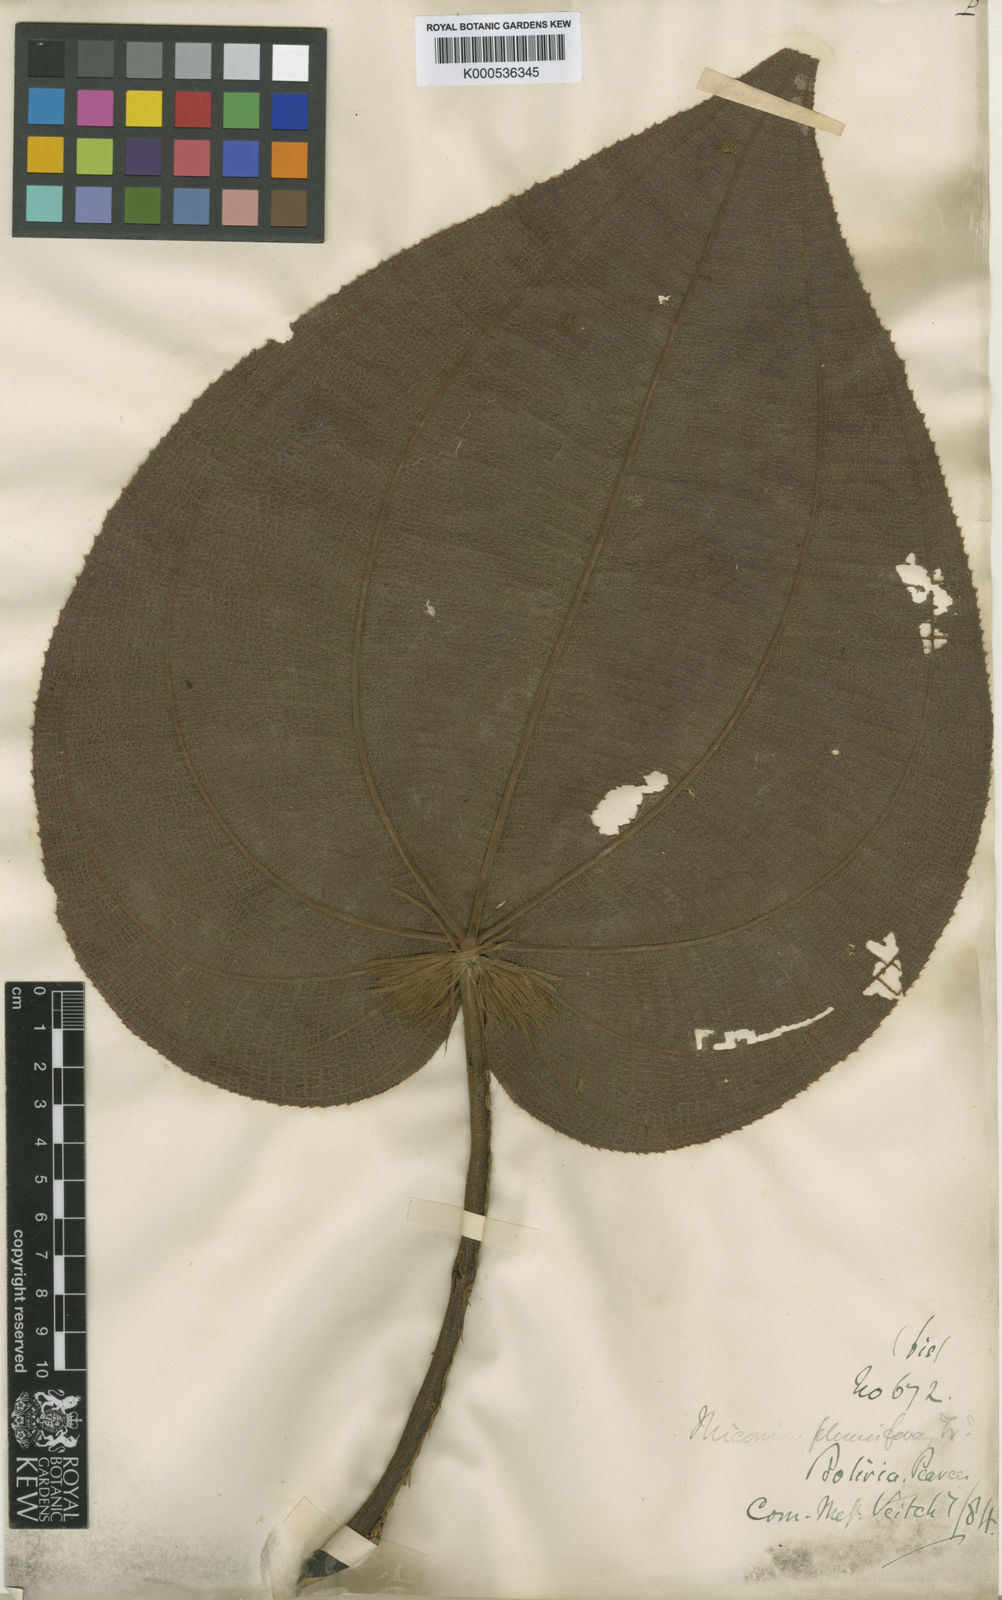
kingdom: Plantae
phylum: Tracheophyta
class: Magnoliopsida
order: Myrtales
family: Melastomataceae
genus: Miconia
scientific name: Miconia plumifera
